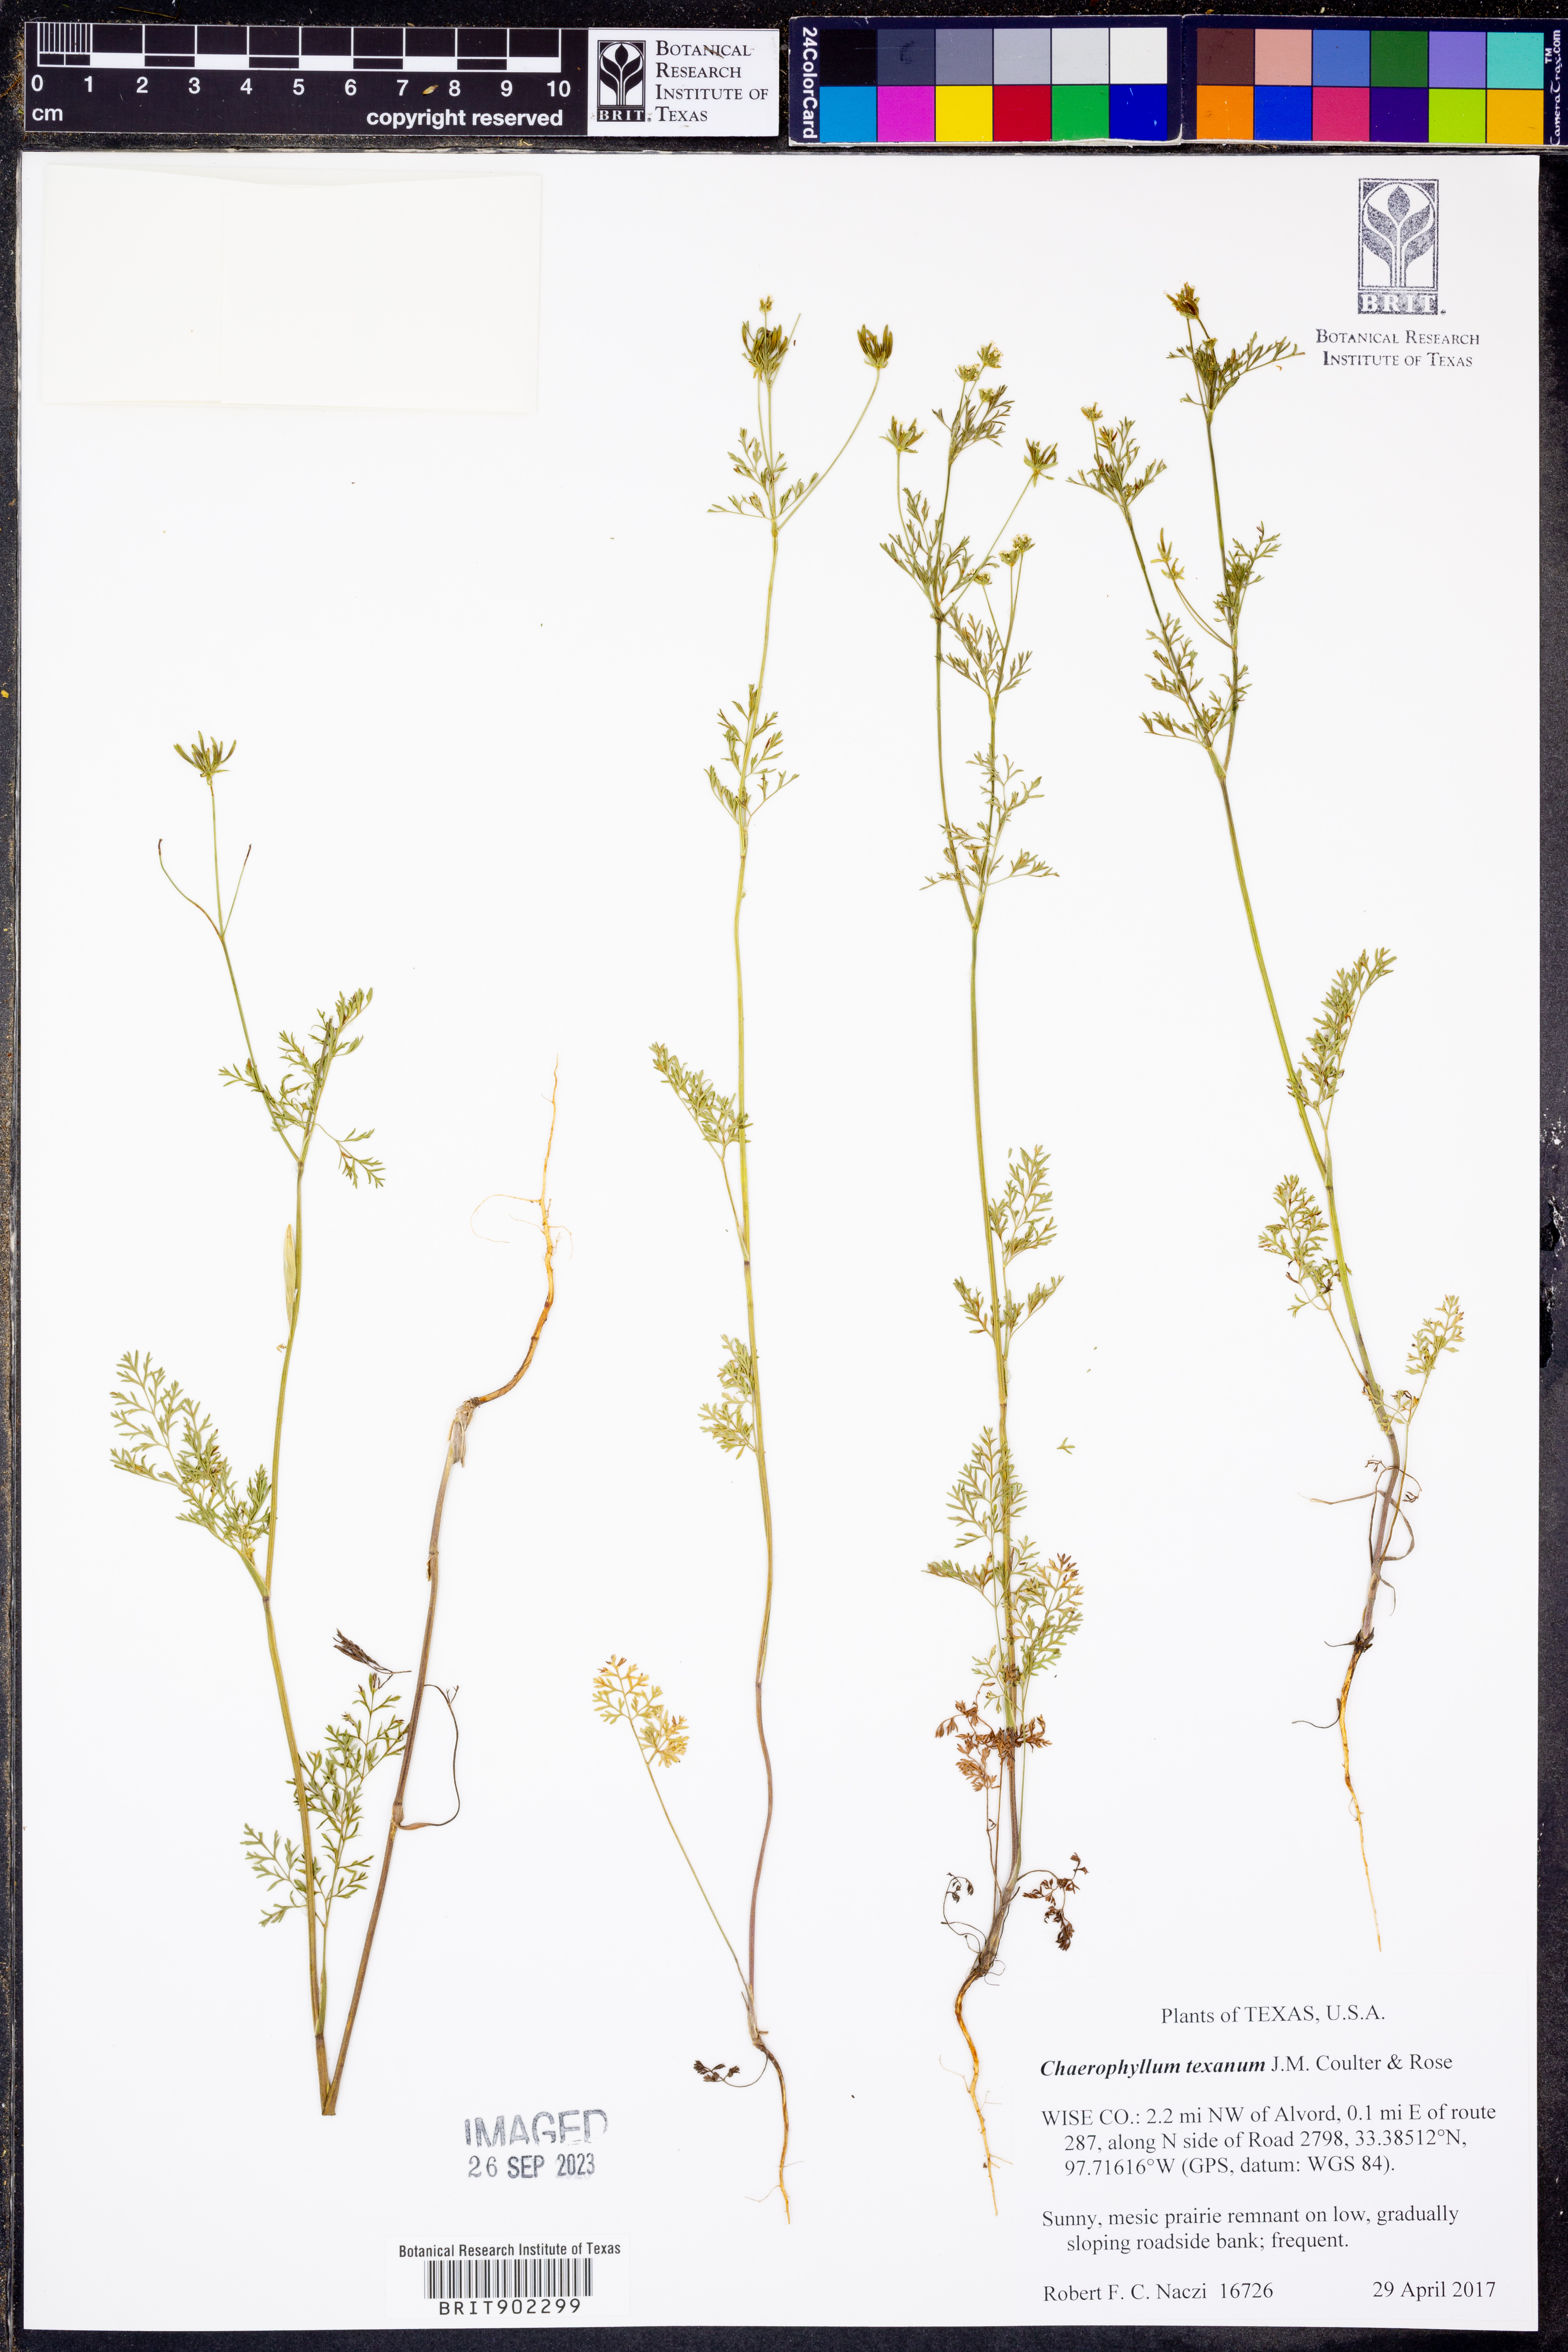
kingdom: Plantae
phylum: Tracheophyta
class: Magnoliopsida
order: Apiales
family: Apiaceae
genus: Chaerophyllum
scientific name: Chaerophyllum tainturieri
